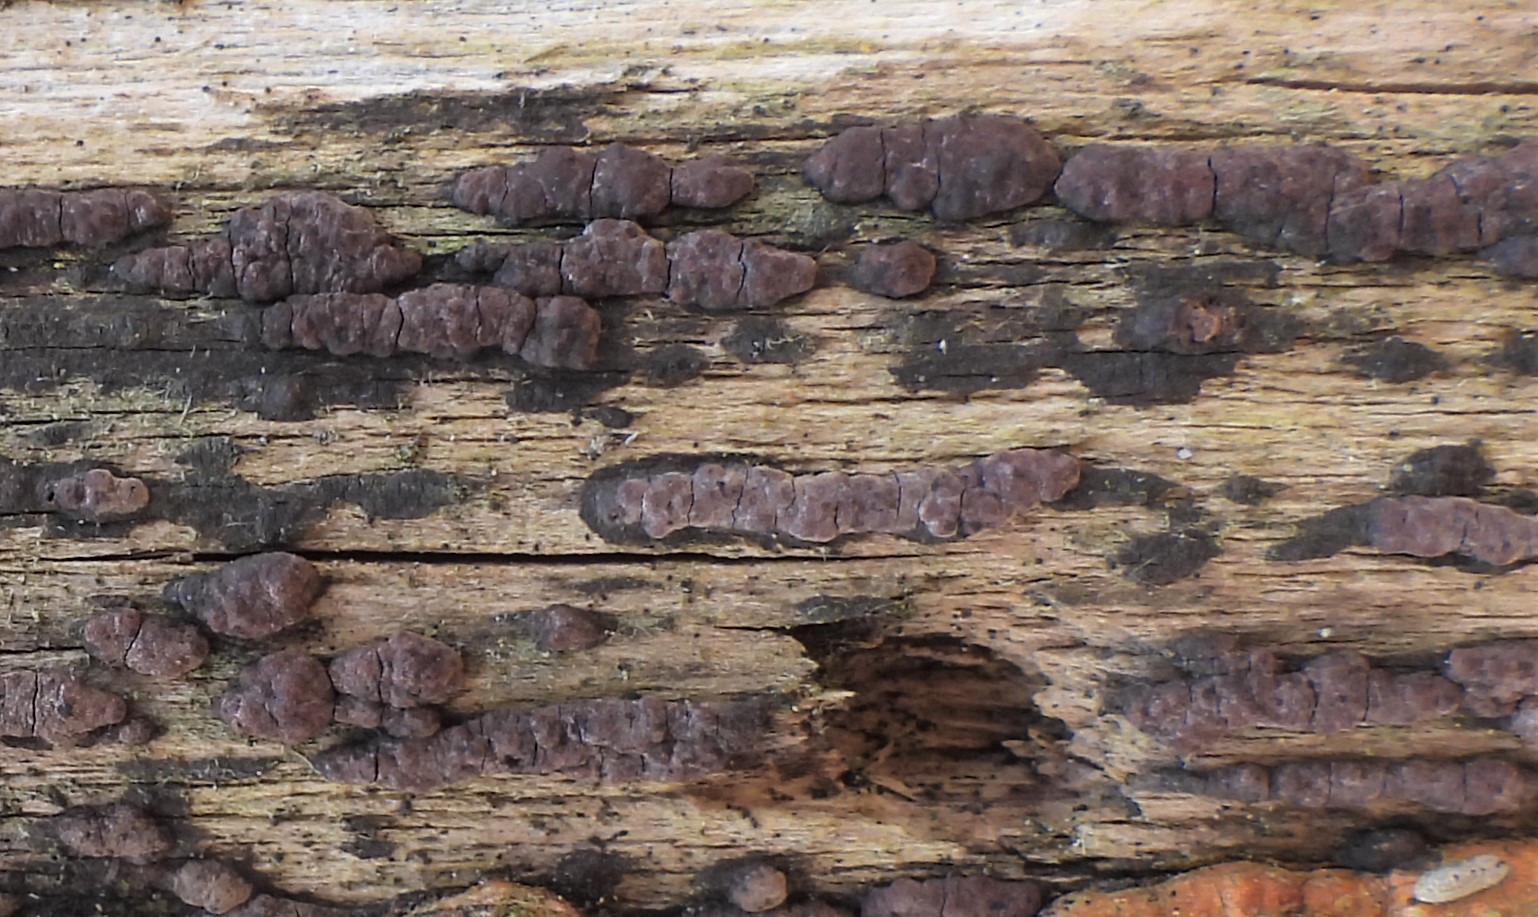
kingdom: Fungi
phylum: Ascomycota
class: Sordariomycetes
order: Xylariales
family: Hypoxylaceae
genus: Hypoxylon
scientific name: Hypoxylon fuscum
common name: kegleformet kulbær
